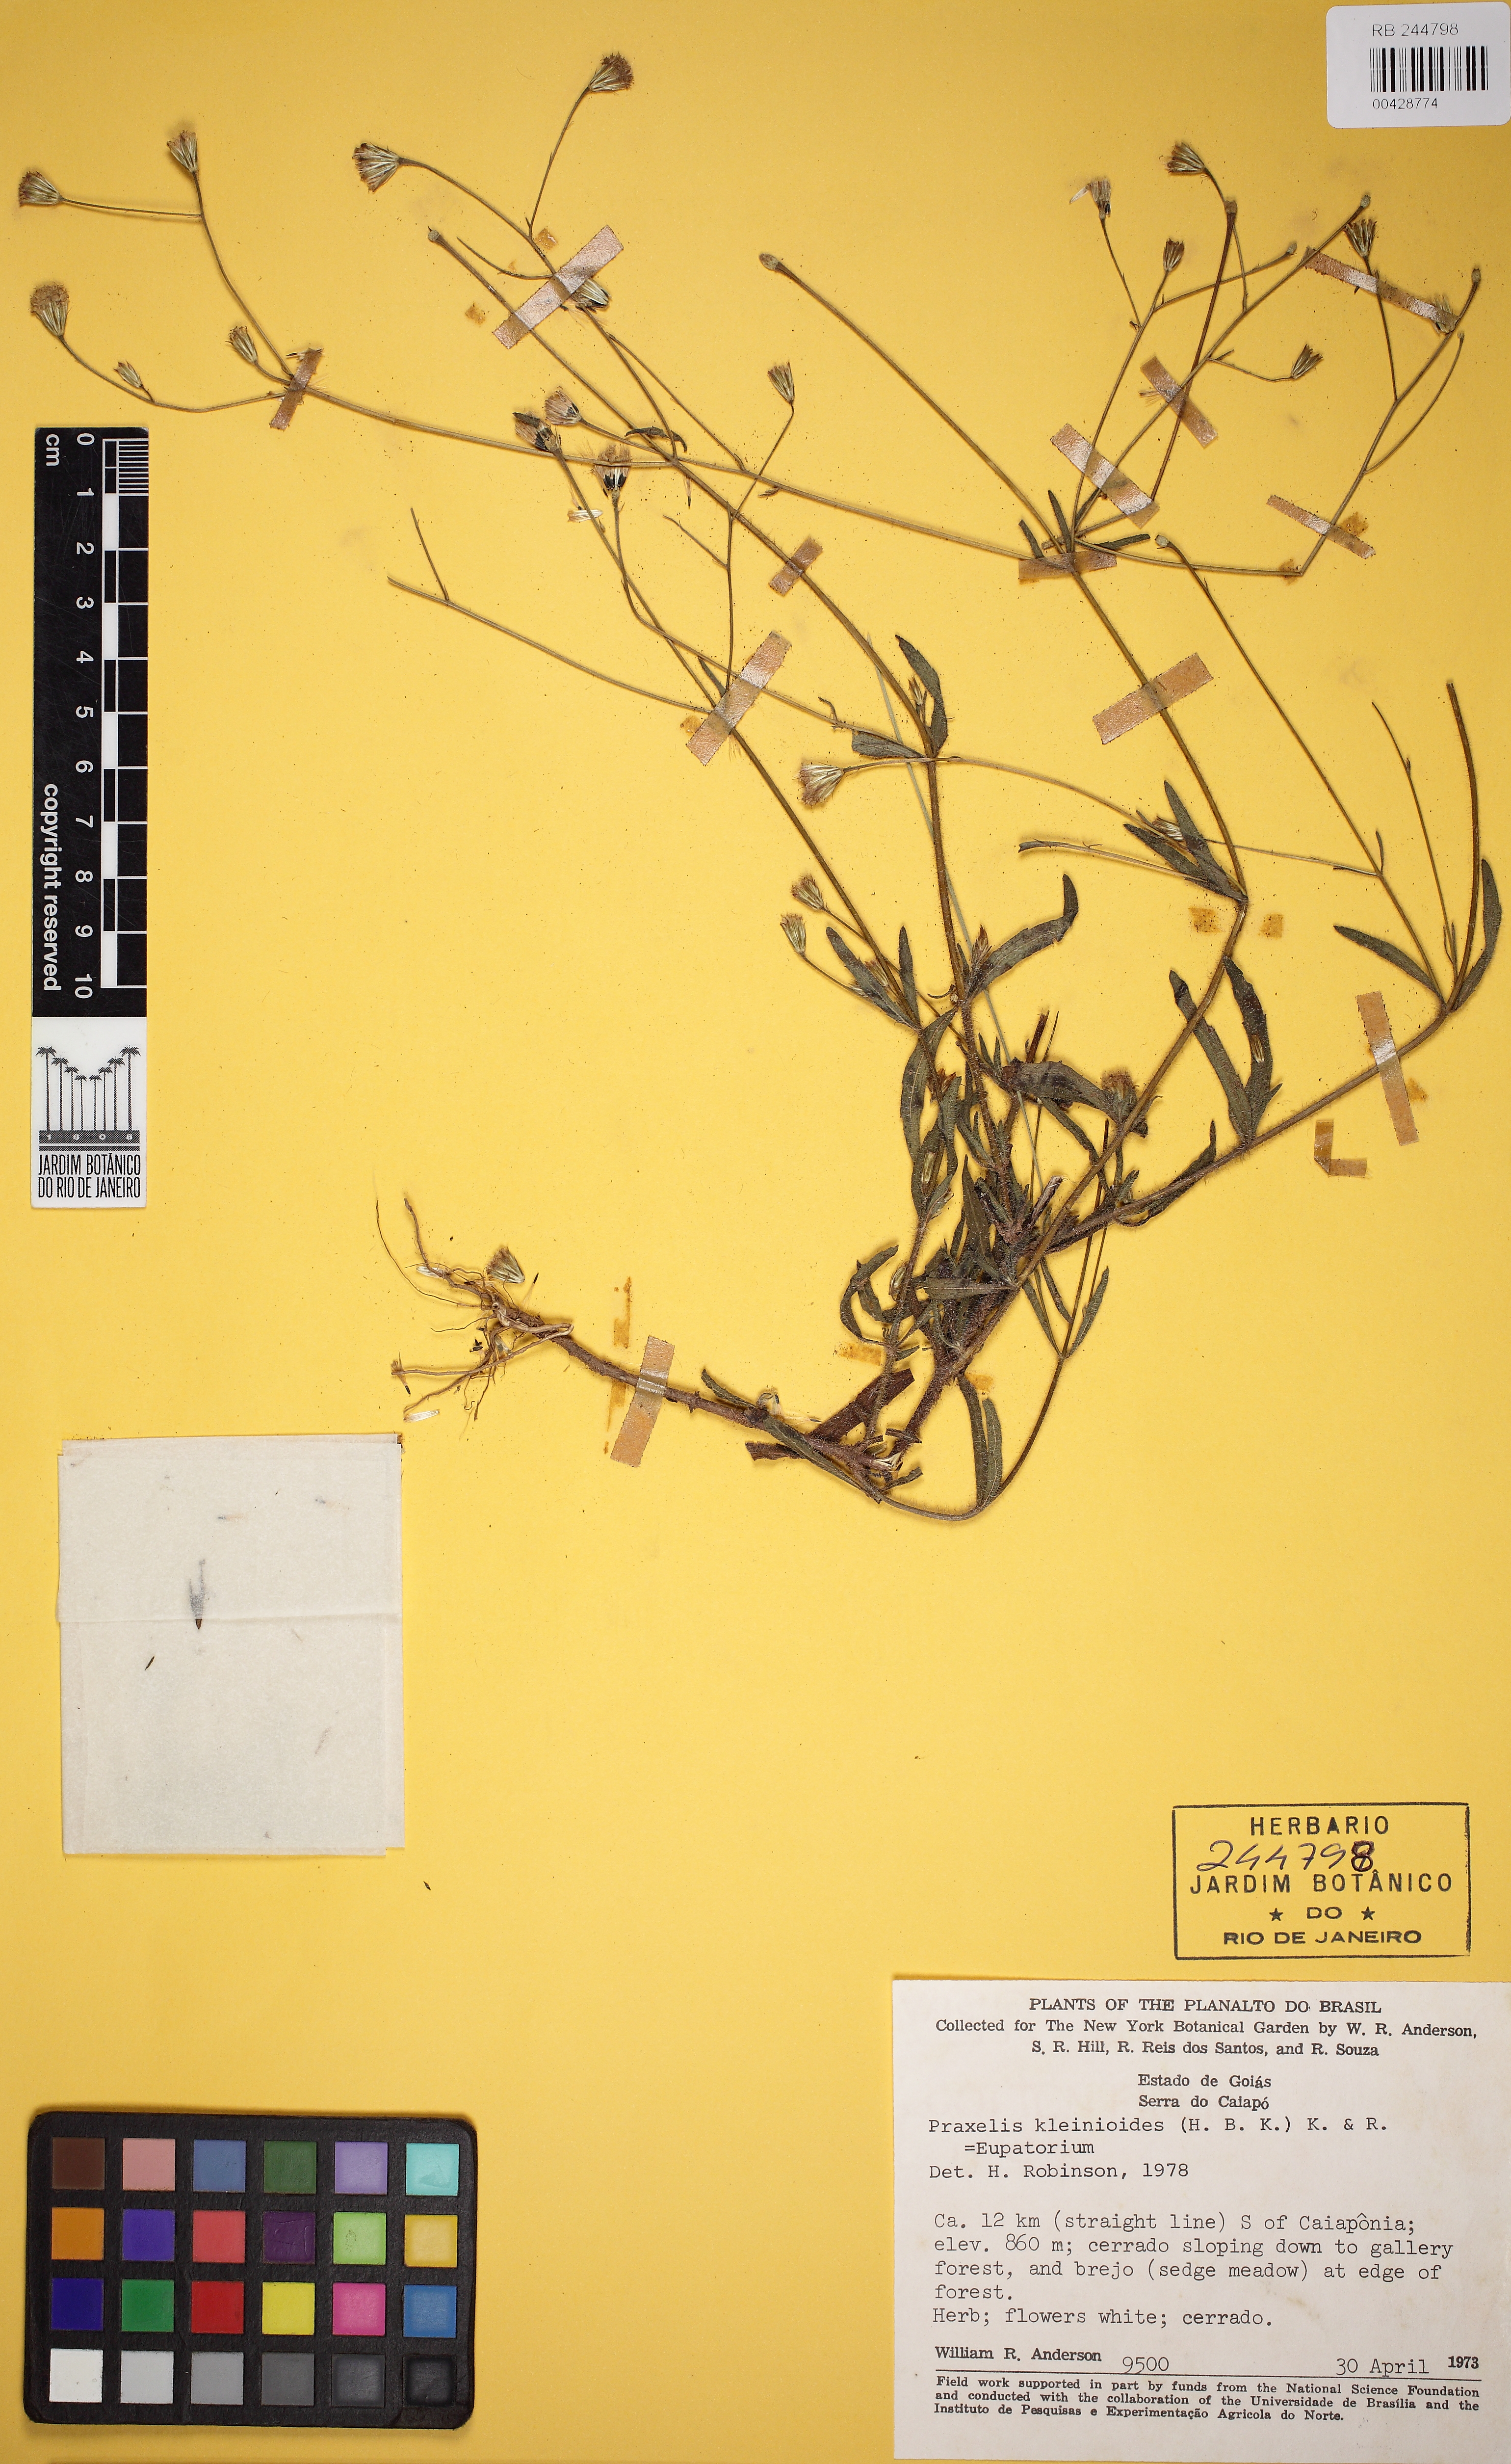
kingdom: Plantae
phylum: Tracheophyta
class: Magnoliopsida
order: Asterales
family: Asteraceae
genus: Praxelis
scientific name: Praxelis kleinioides
